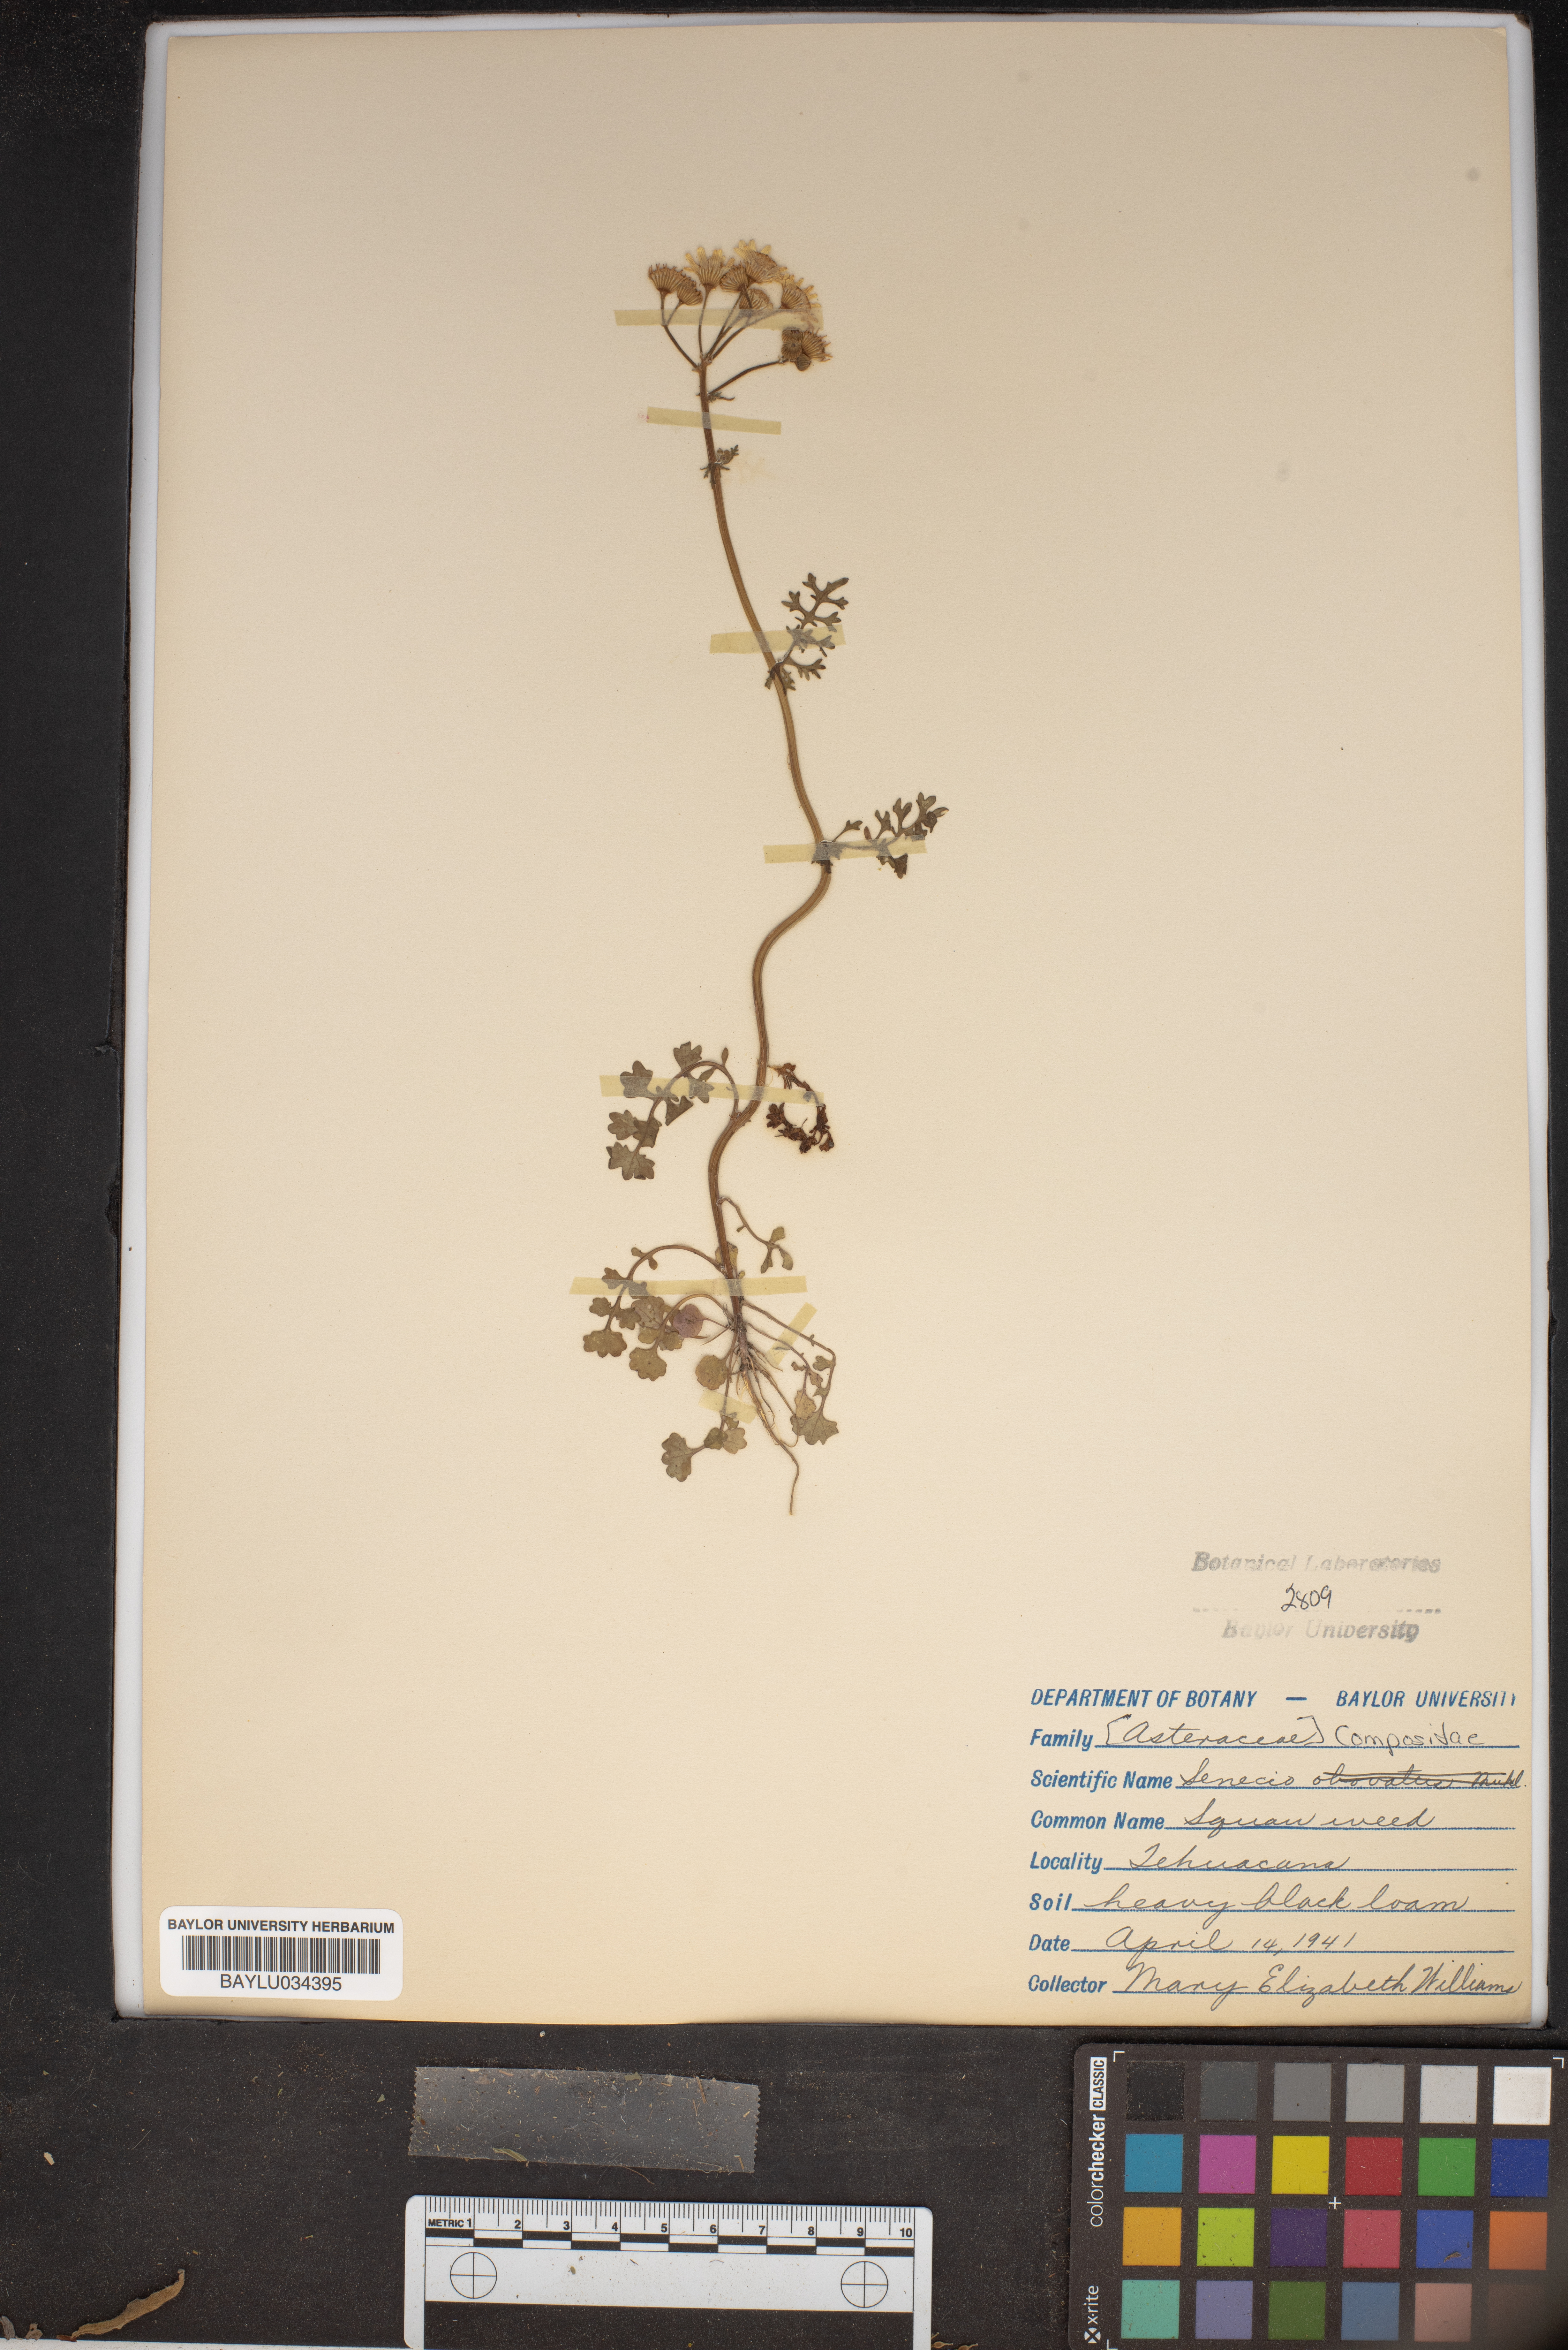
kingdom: Plantae
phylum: Tracheophyta
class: Magnoliopsida
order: Asterales
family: Asteraceae
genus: Senecio
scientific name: Senecio
